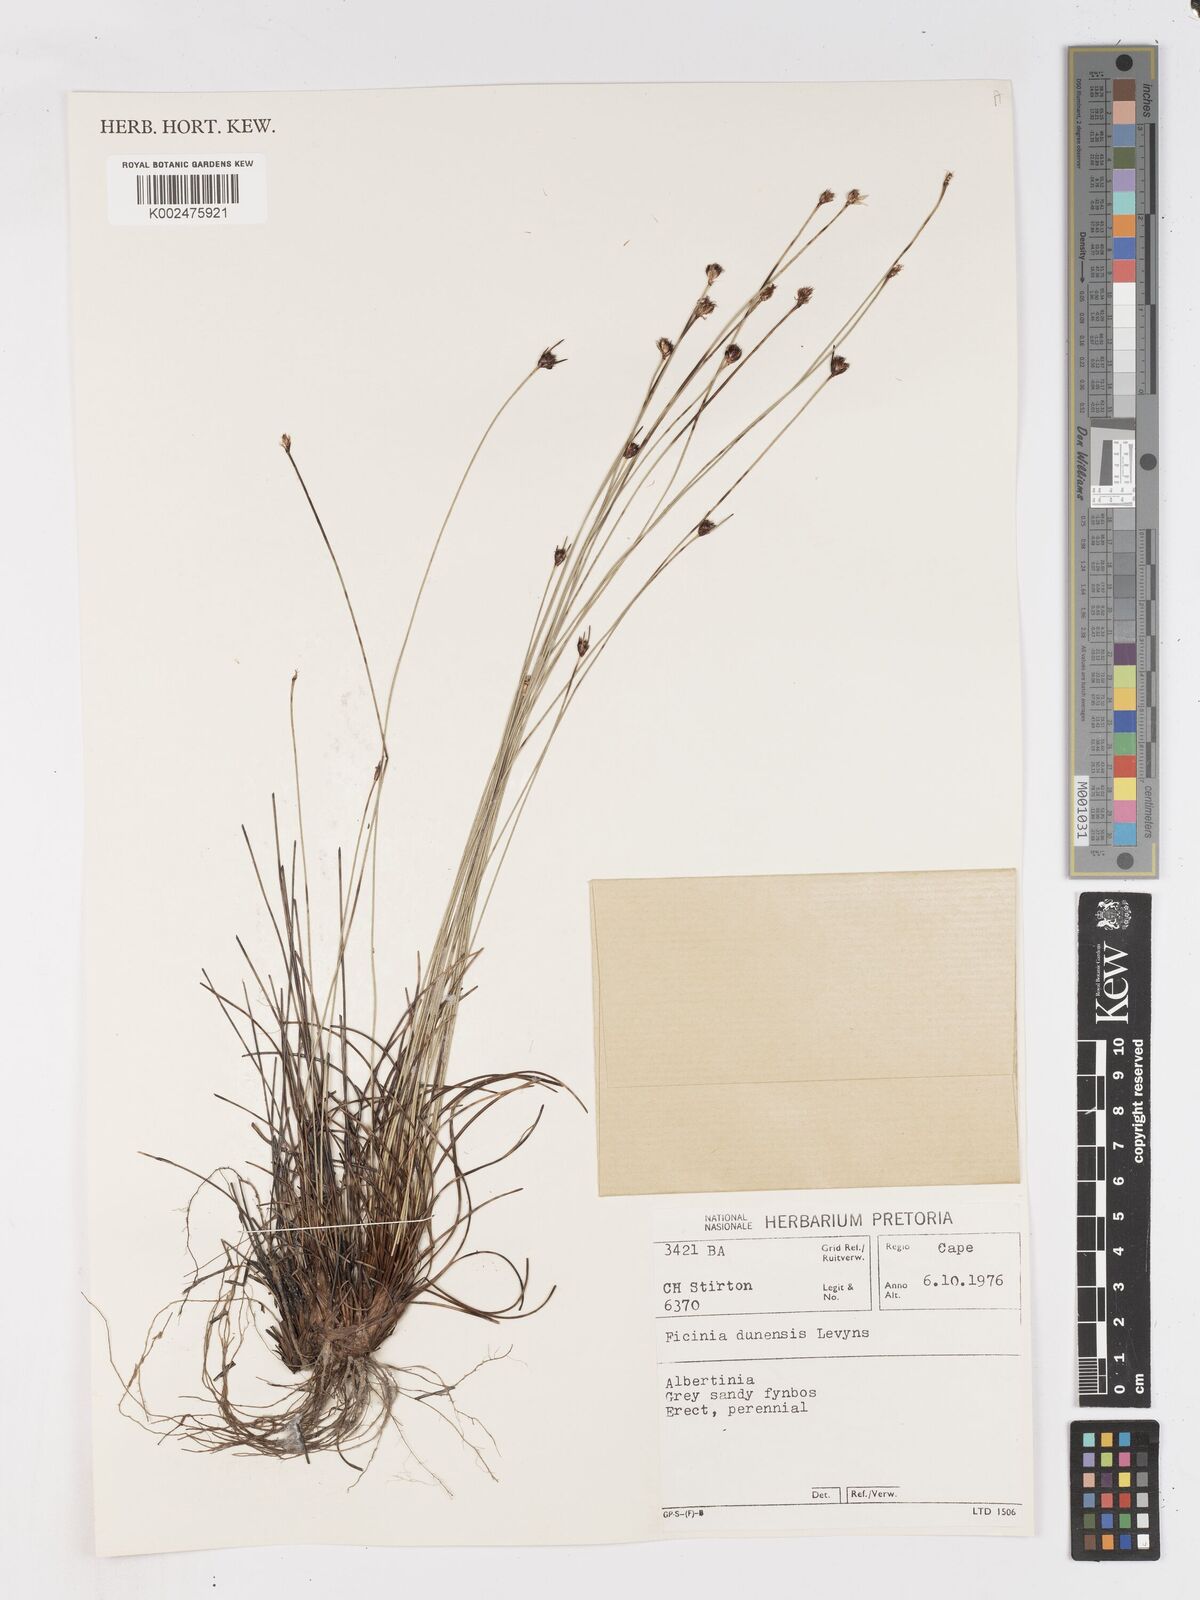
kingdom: Plantae
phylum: Tracheophyta
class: Liliopsida
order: Poales
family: Cyperaceae
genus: Ficinia
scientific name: Ficinia dunensis
